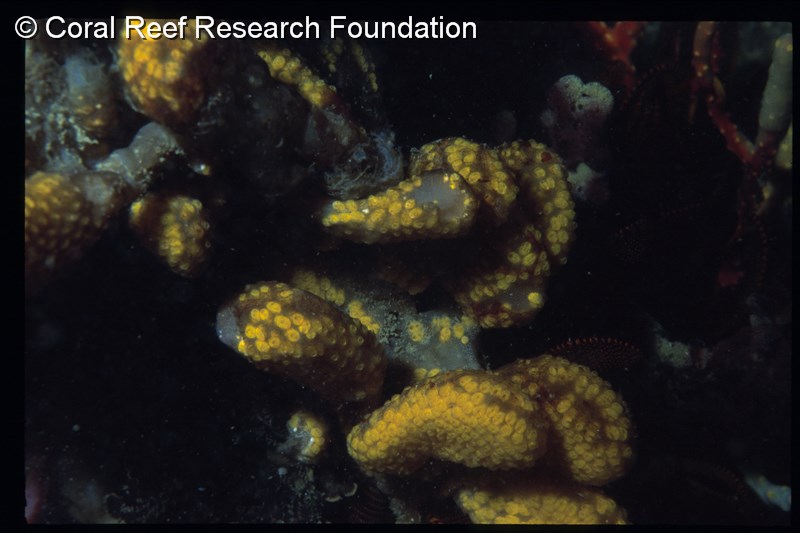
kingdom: Animalia
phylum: Chordata
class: Ascidiacea
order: Stolidobranchia
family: Styelidae
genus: Botryllus
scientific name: Botryllus elegans
